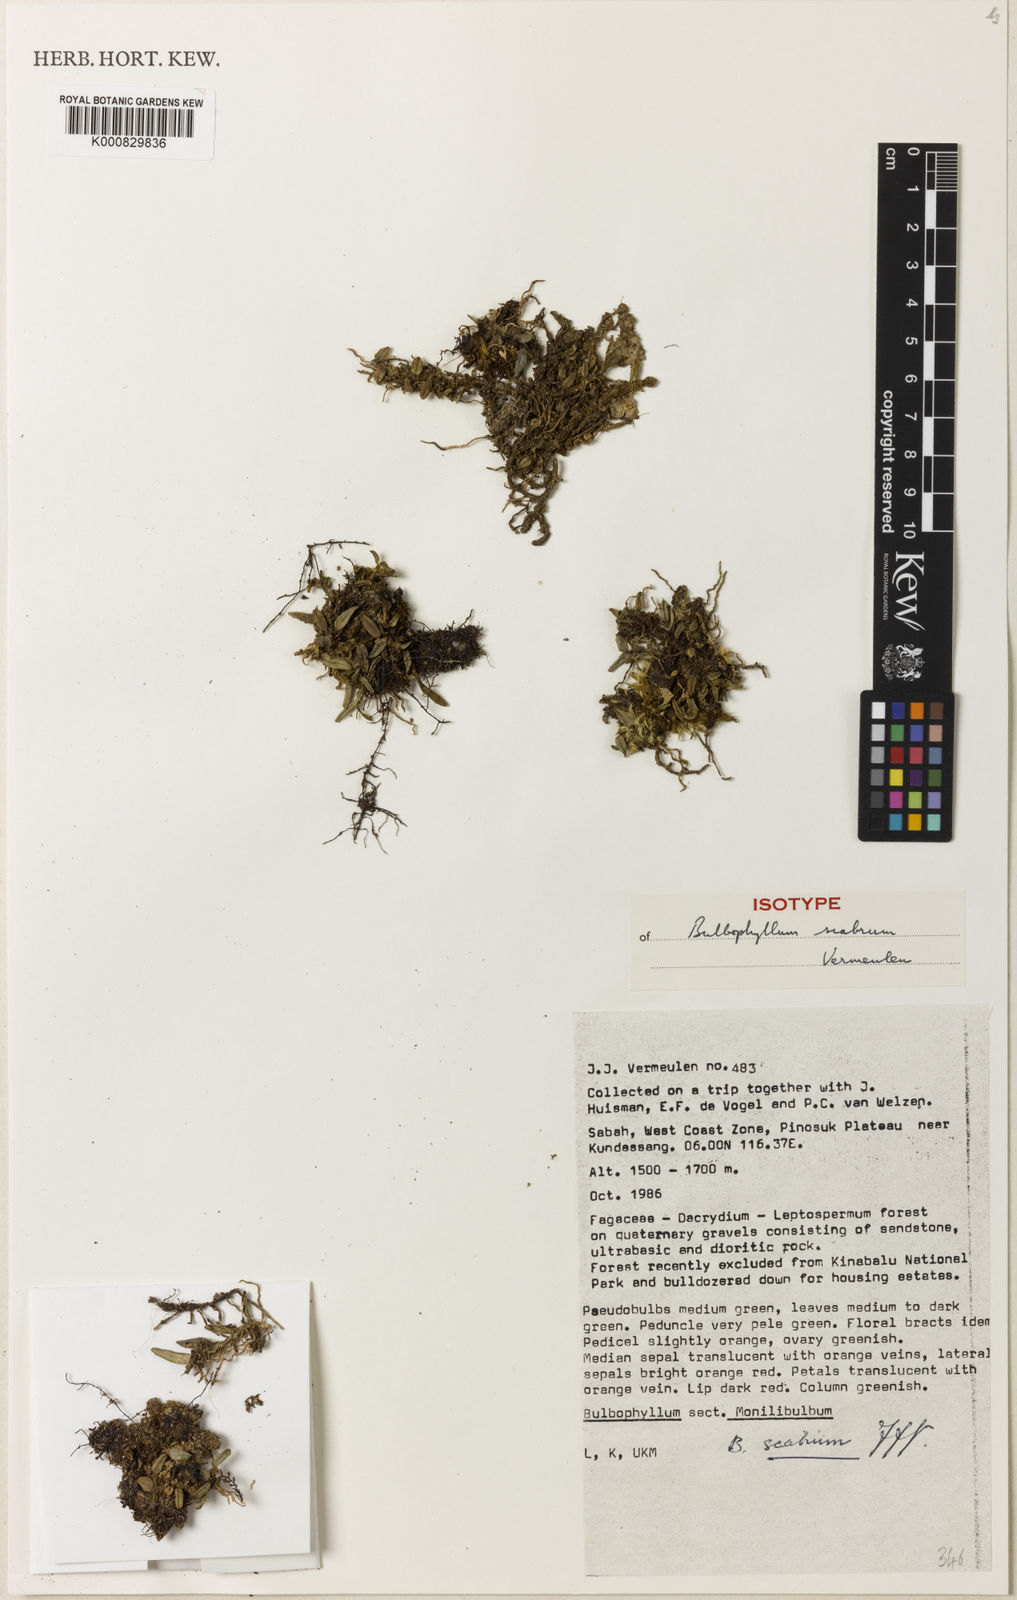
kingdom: Plantae
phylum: Tracheophyta
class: Liliopsida
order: Asparagales
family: Orchidaceae
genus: Bulbophyllum
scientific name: Bulbophyllum scabrum
